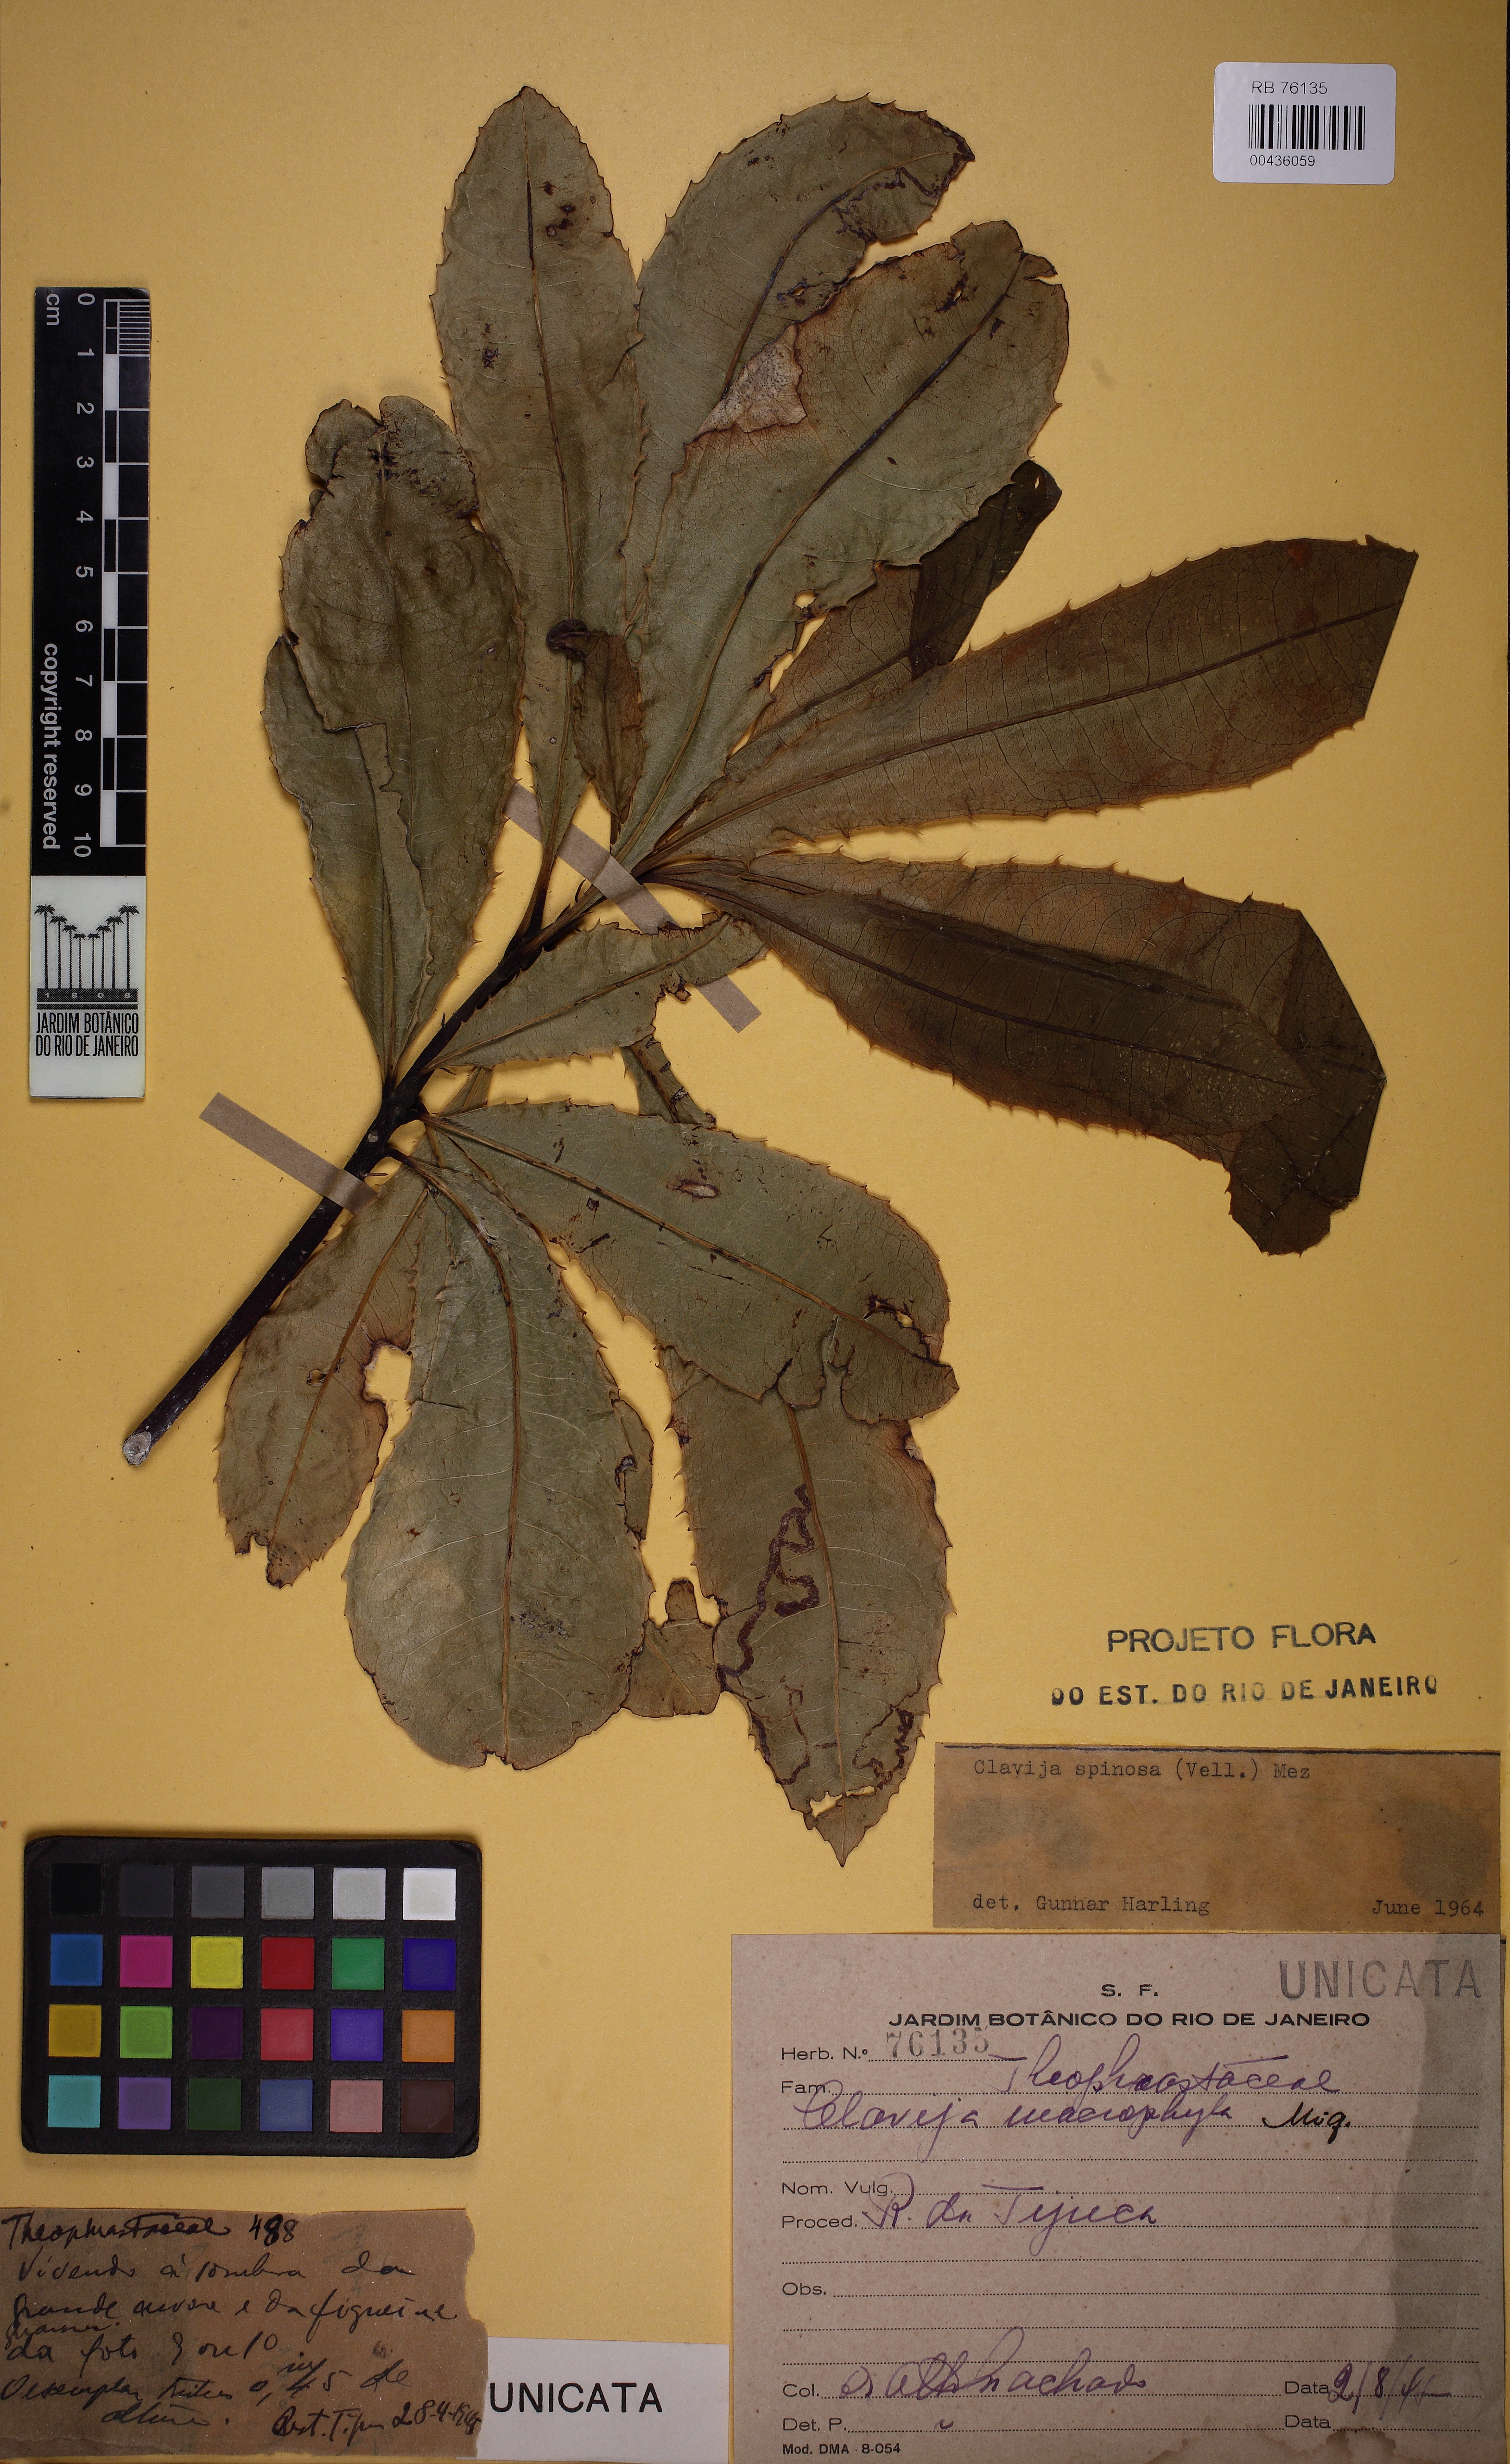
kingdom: Plantae
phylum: Tracheophyta
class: Magnoliopsida
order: Ericales
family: Primulaceae
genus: Clavija
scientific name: Clavija spinosa
